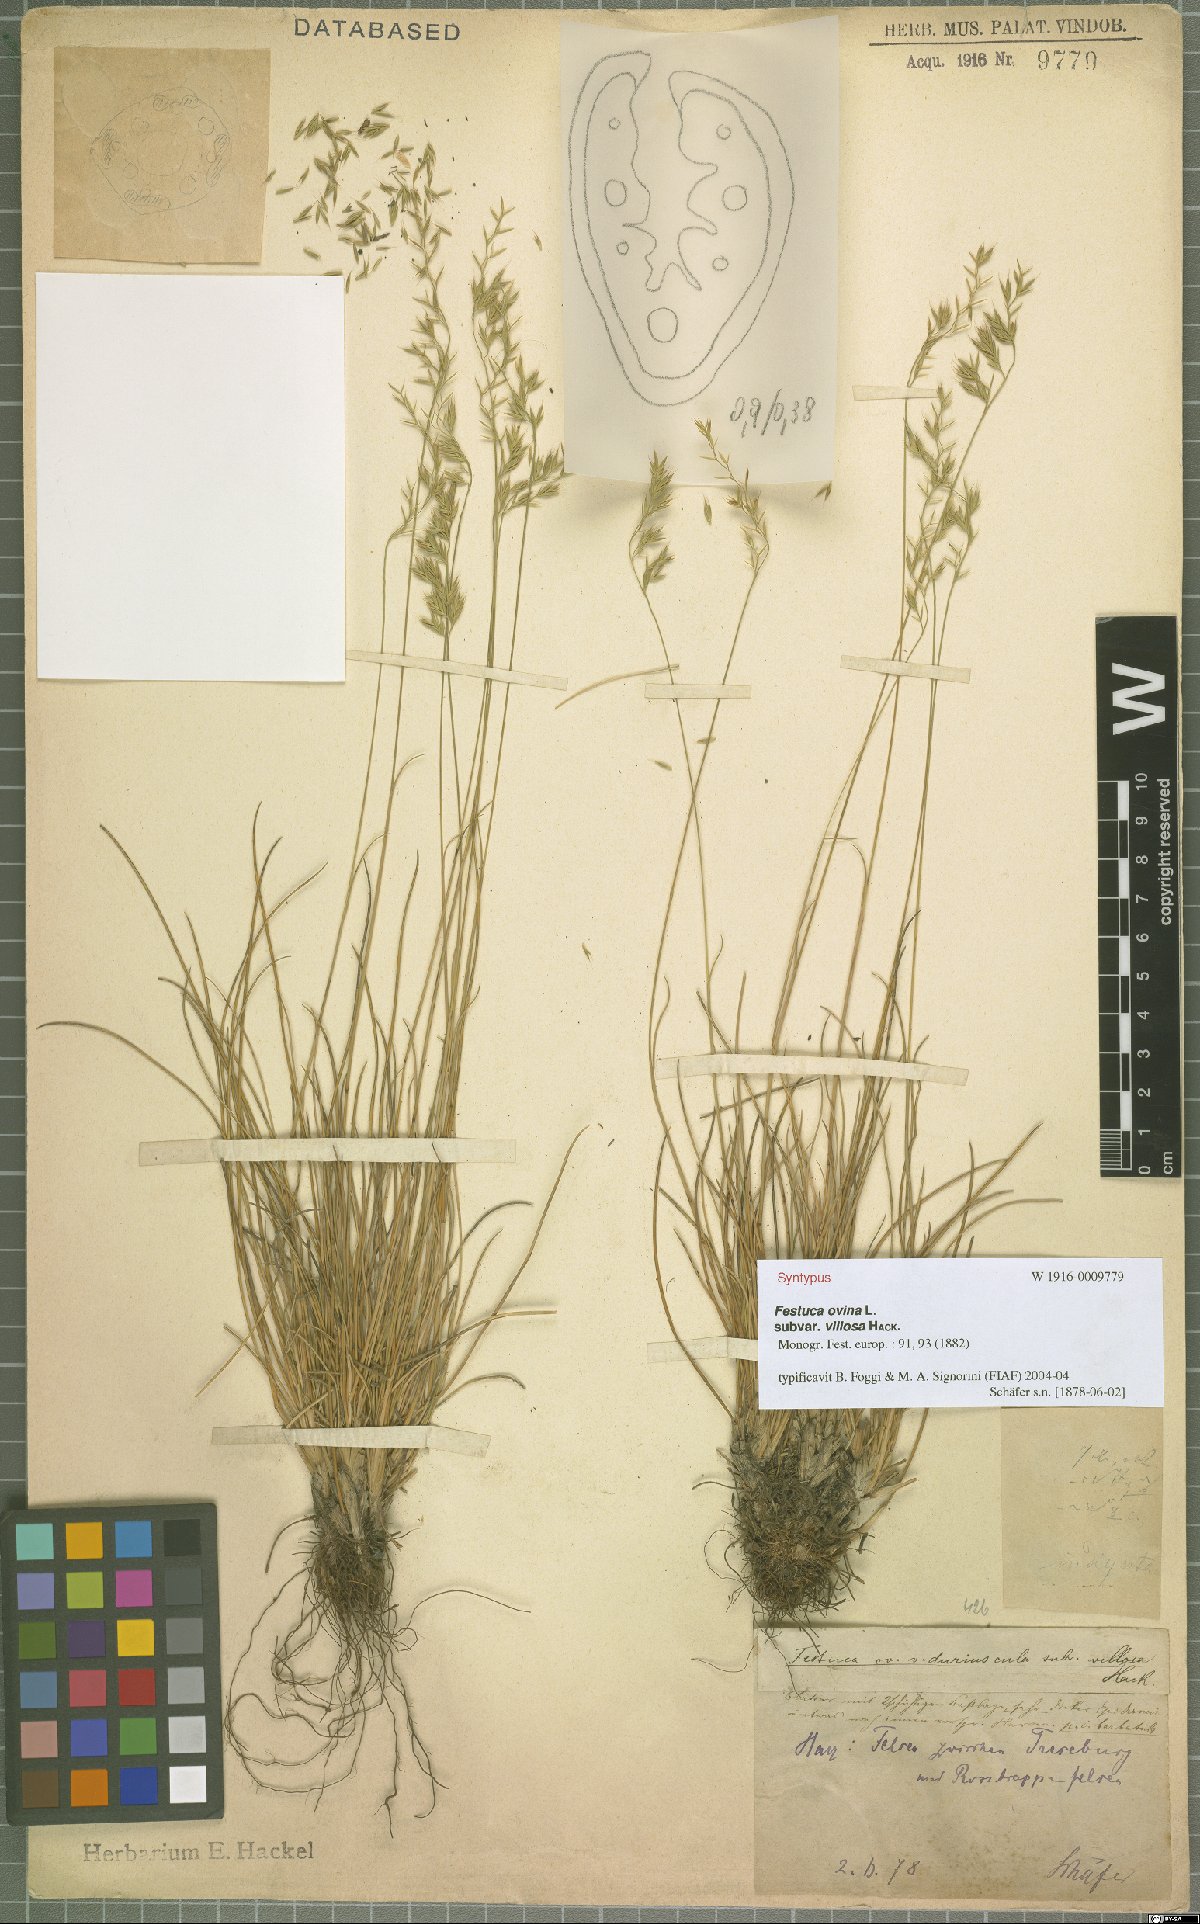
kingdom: Plantae
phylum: Tracheophyta
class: Liliopsida
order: Poales
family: Poaceae
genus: Festuca
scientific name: Festuca longifolia
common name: Blue fescue
